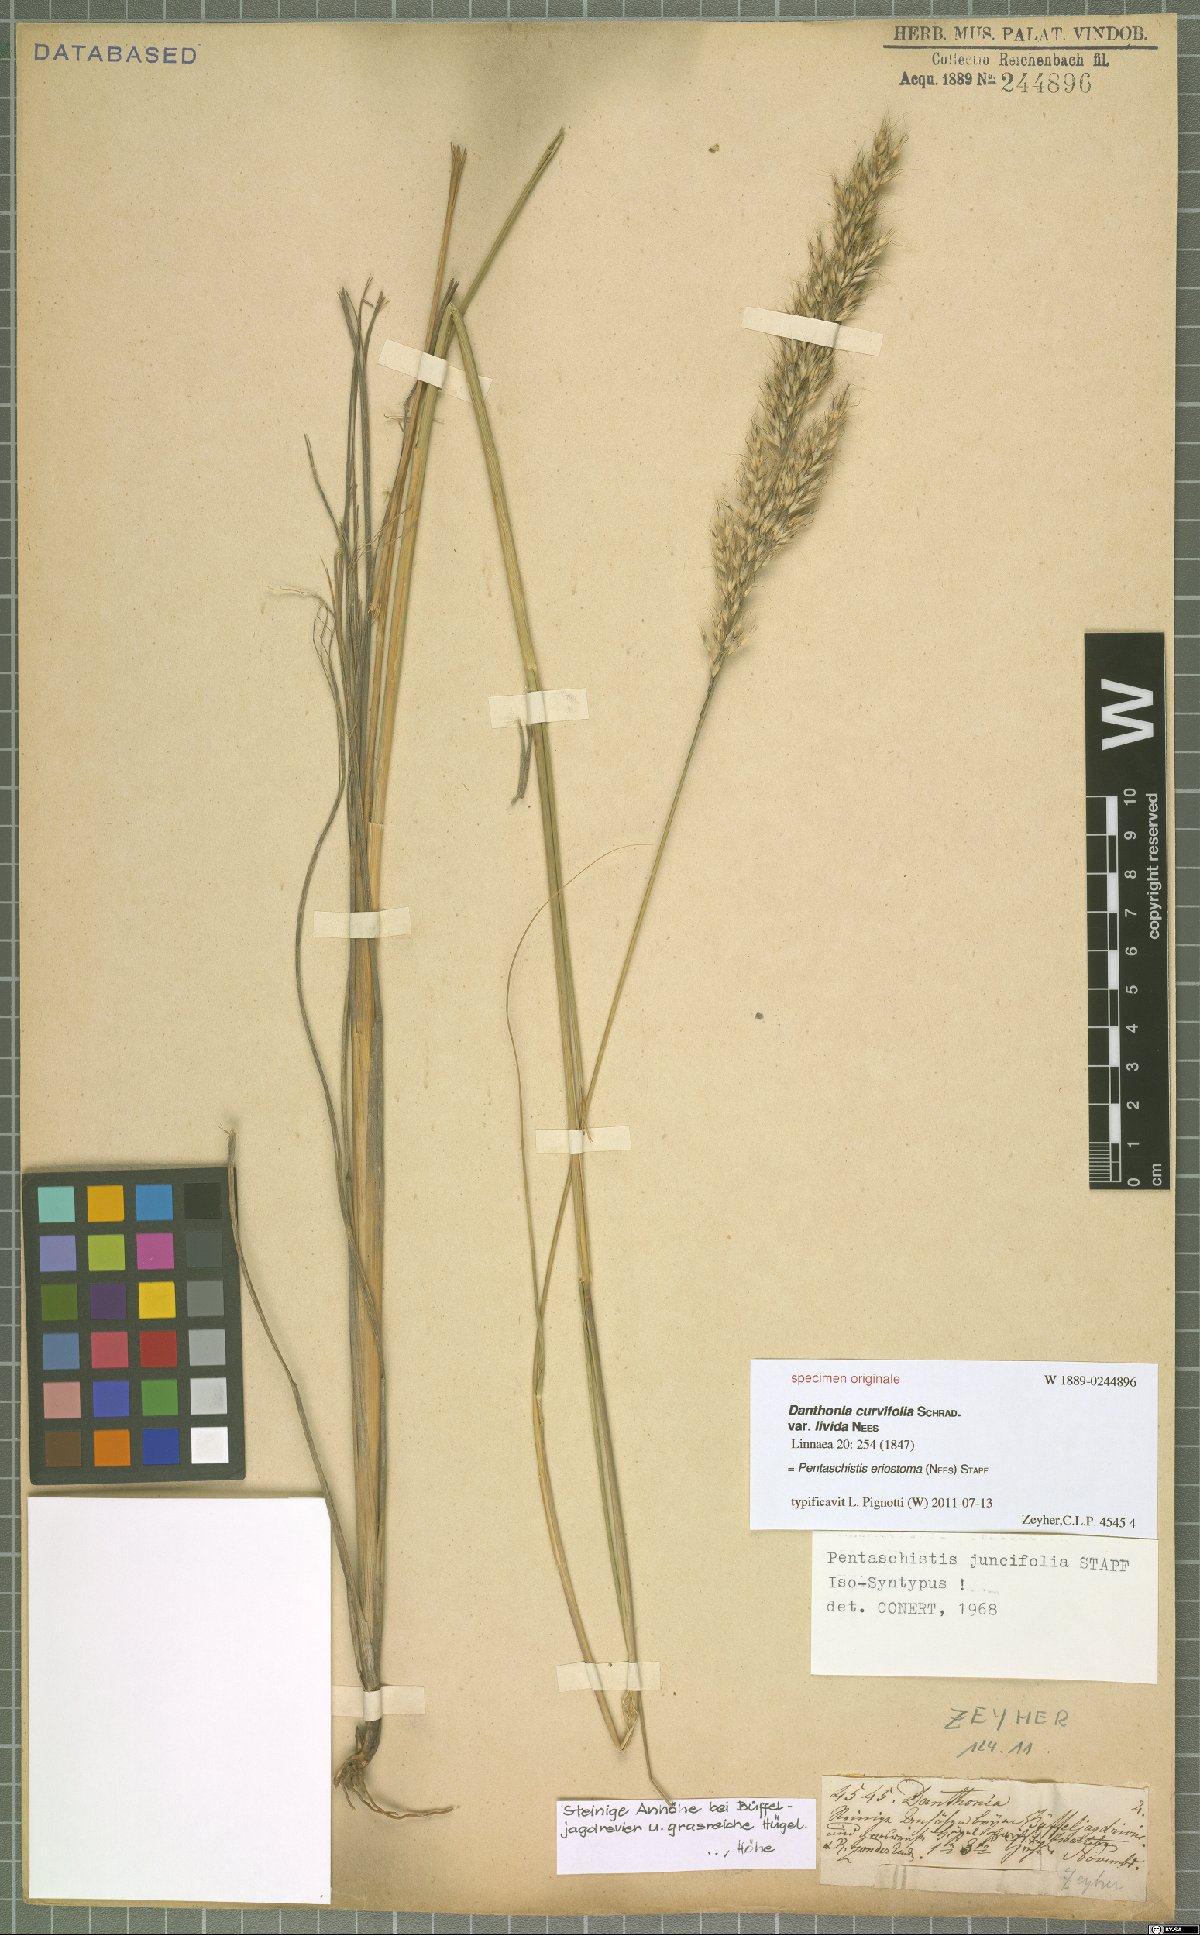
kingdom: Plantae
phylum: Tracheophyta
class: Liliopsida
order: Poales
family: Poaceae
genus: Pentameris
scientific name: Pentameris eriostoma
